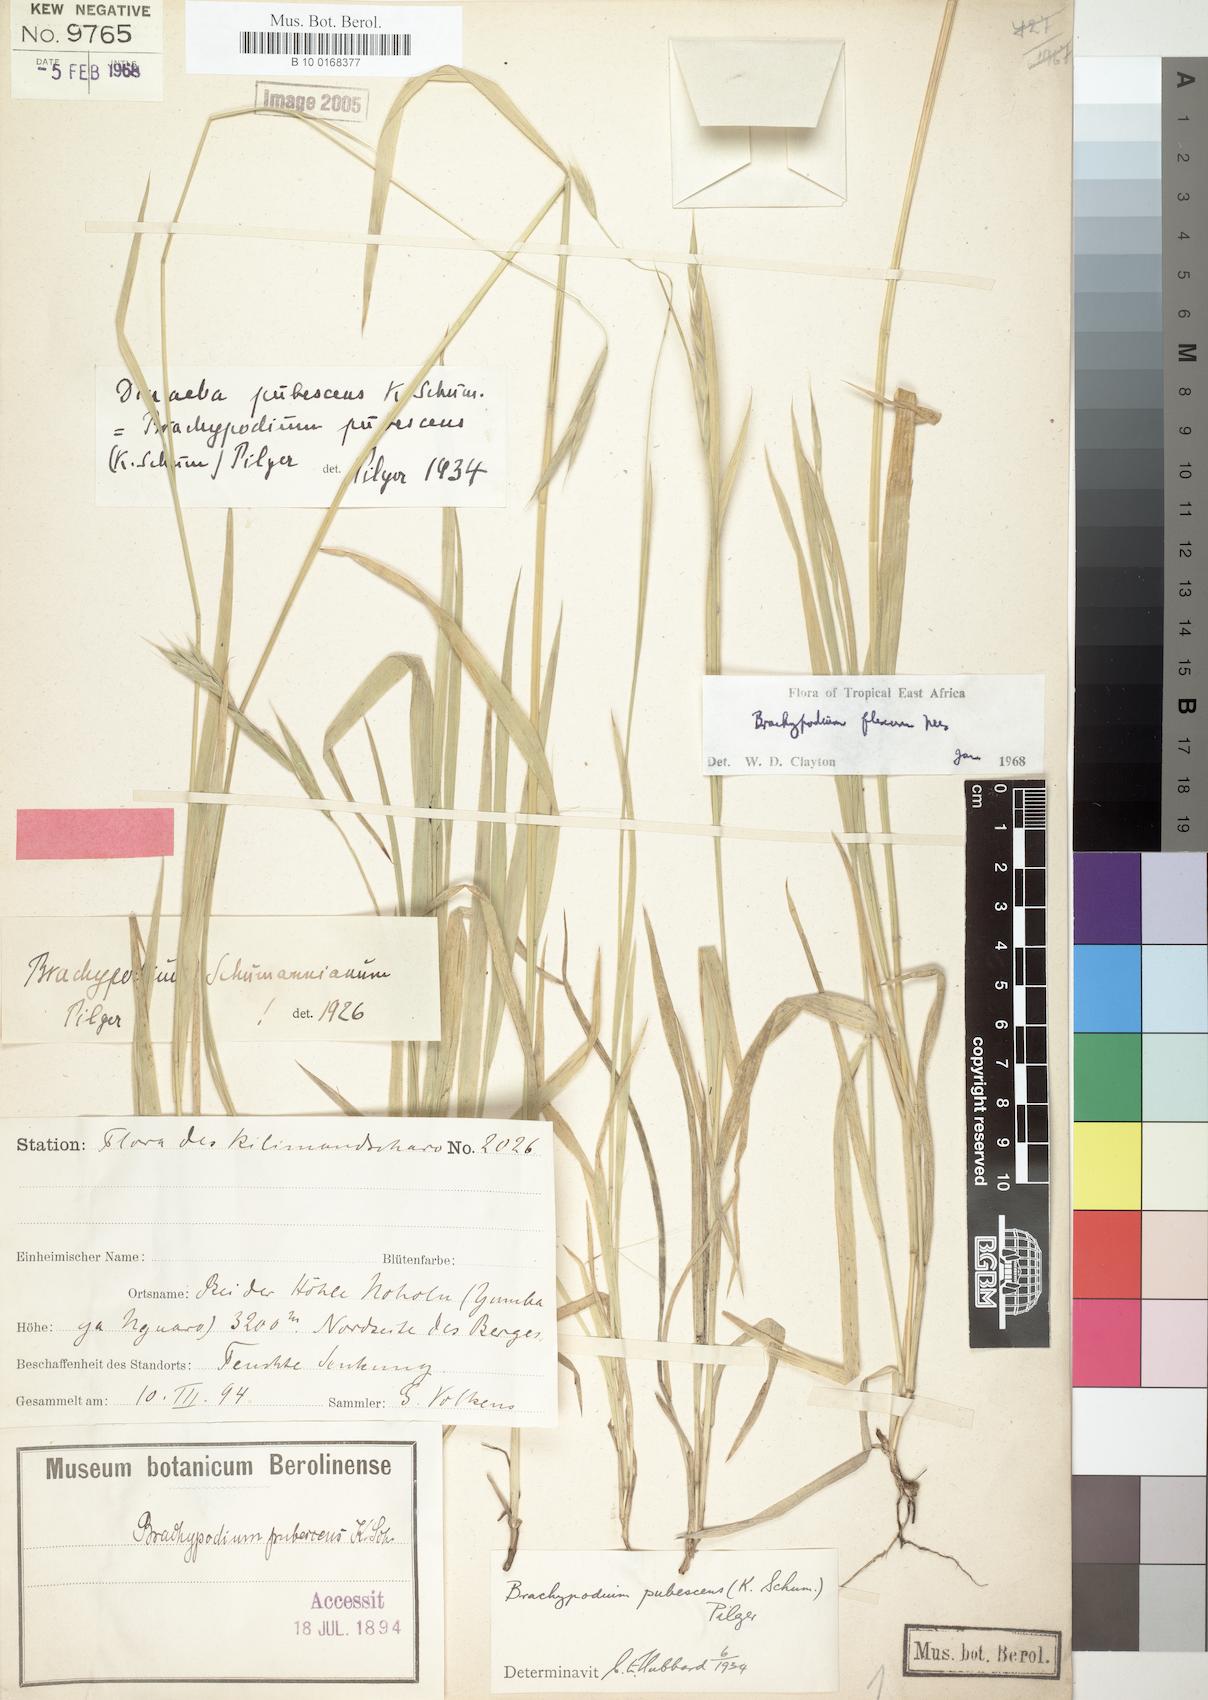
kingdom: Plantae
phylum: Tracheophyta
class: Liliopsida
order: Poales
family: Poaceae
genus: Brachypodium
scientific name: Brachypodium flexum
